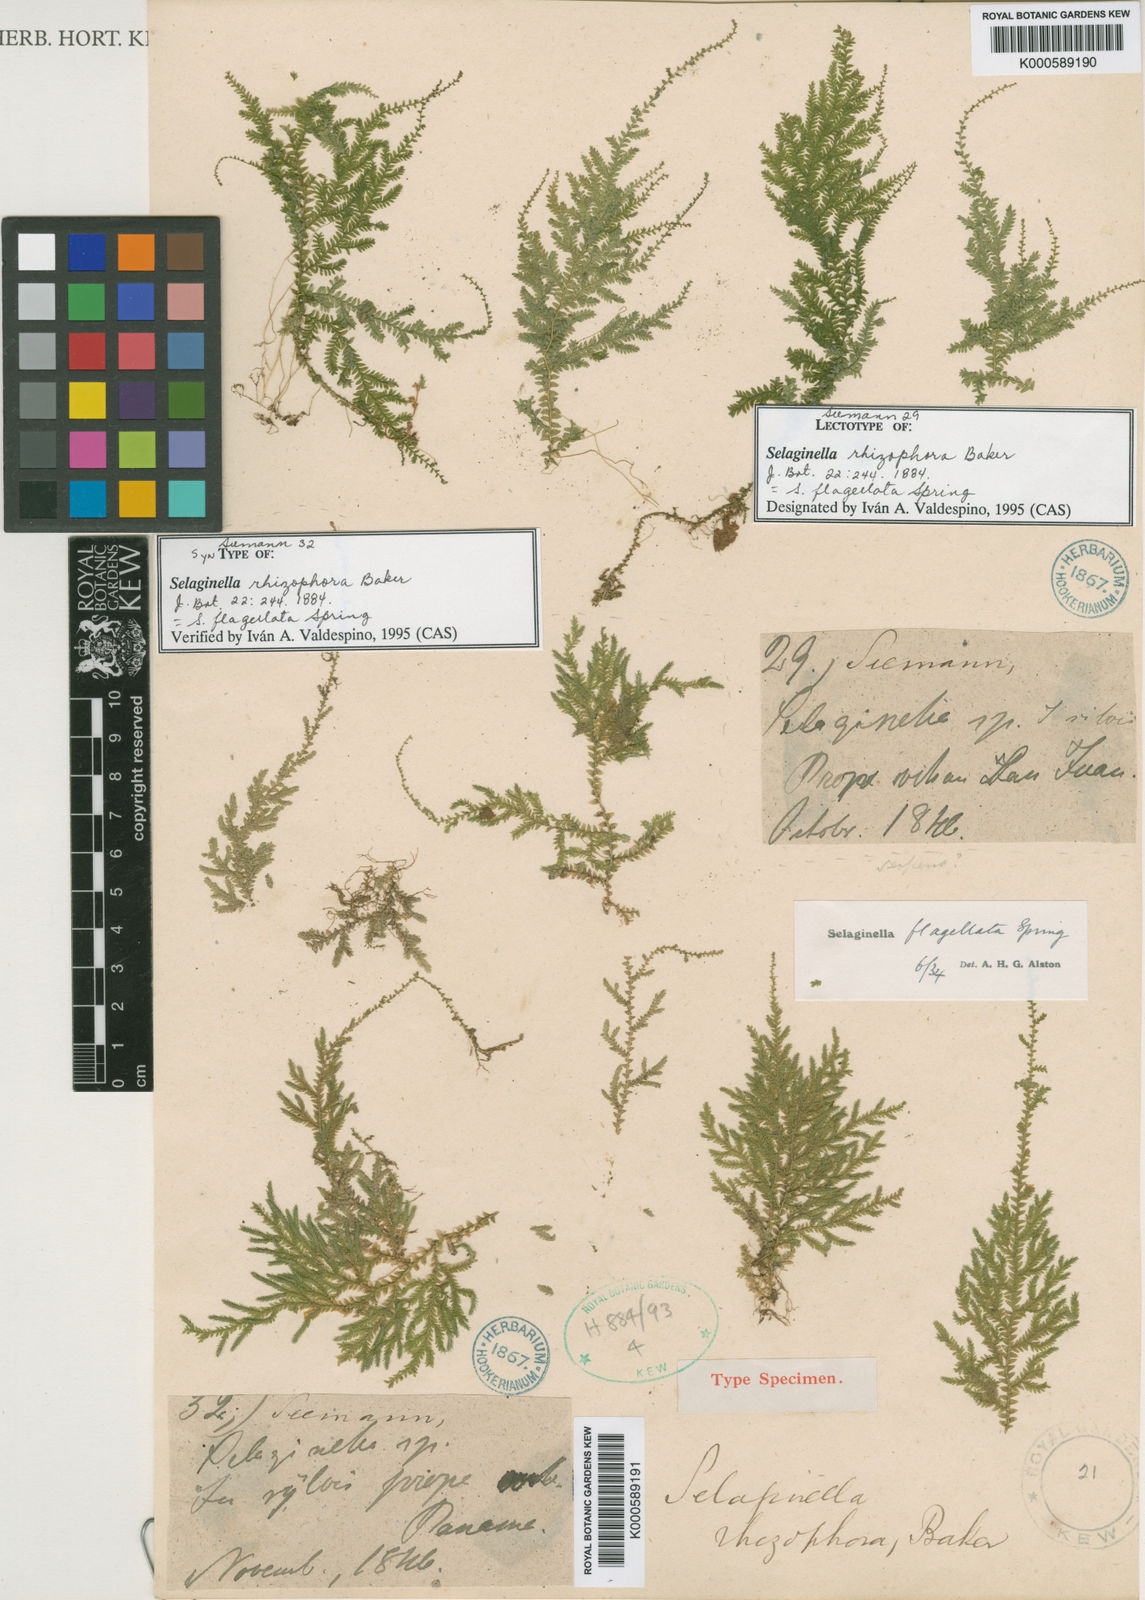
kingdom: Plantae
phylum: Tracheophyta
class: Lycopodiopsida
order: Selaginellales
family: Selaginellaceae
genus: Selaginella
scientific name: Selaginella flagellata
